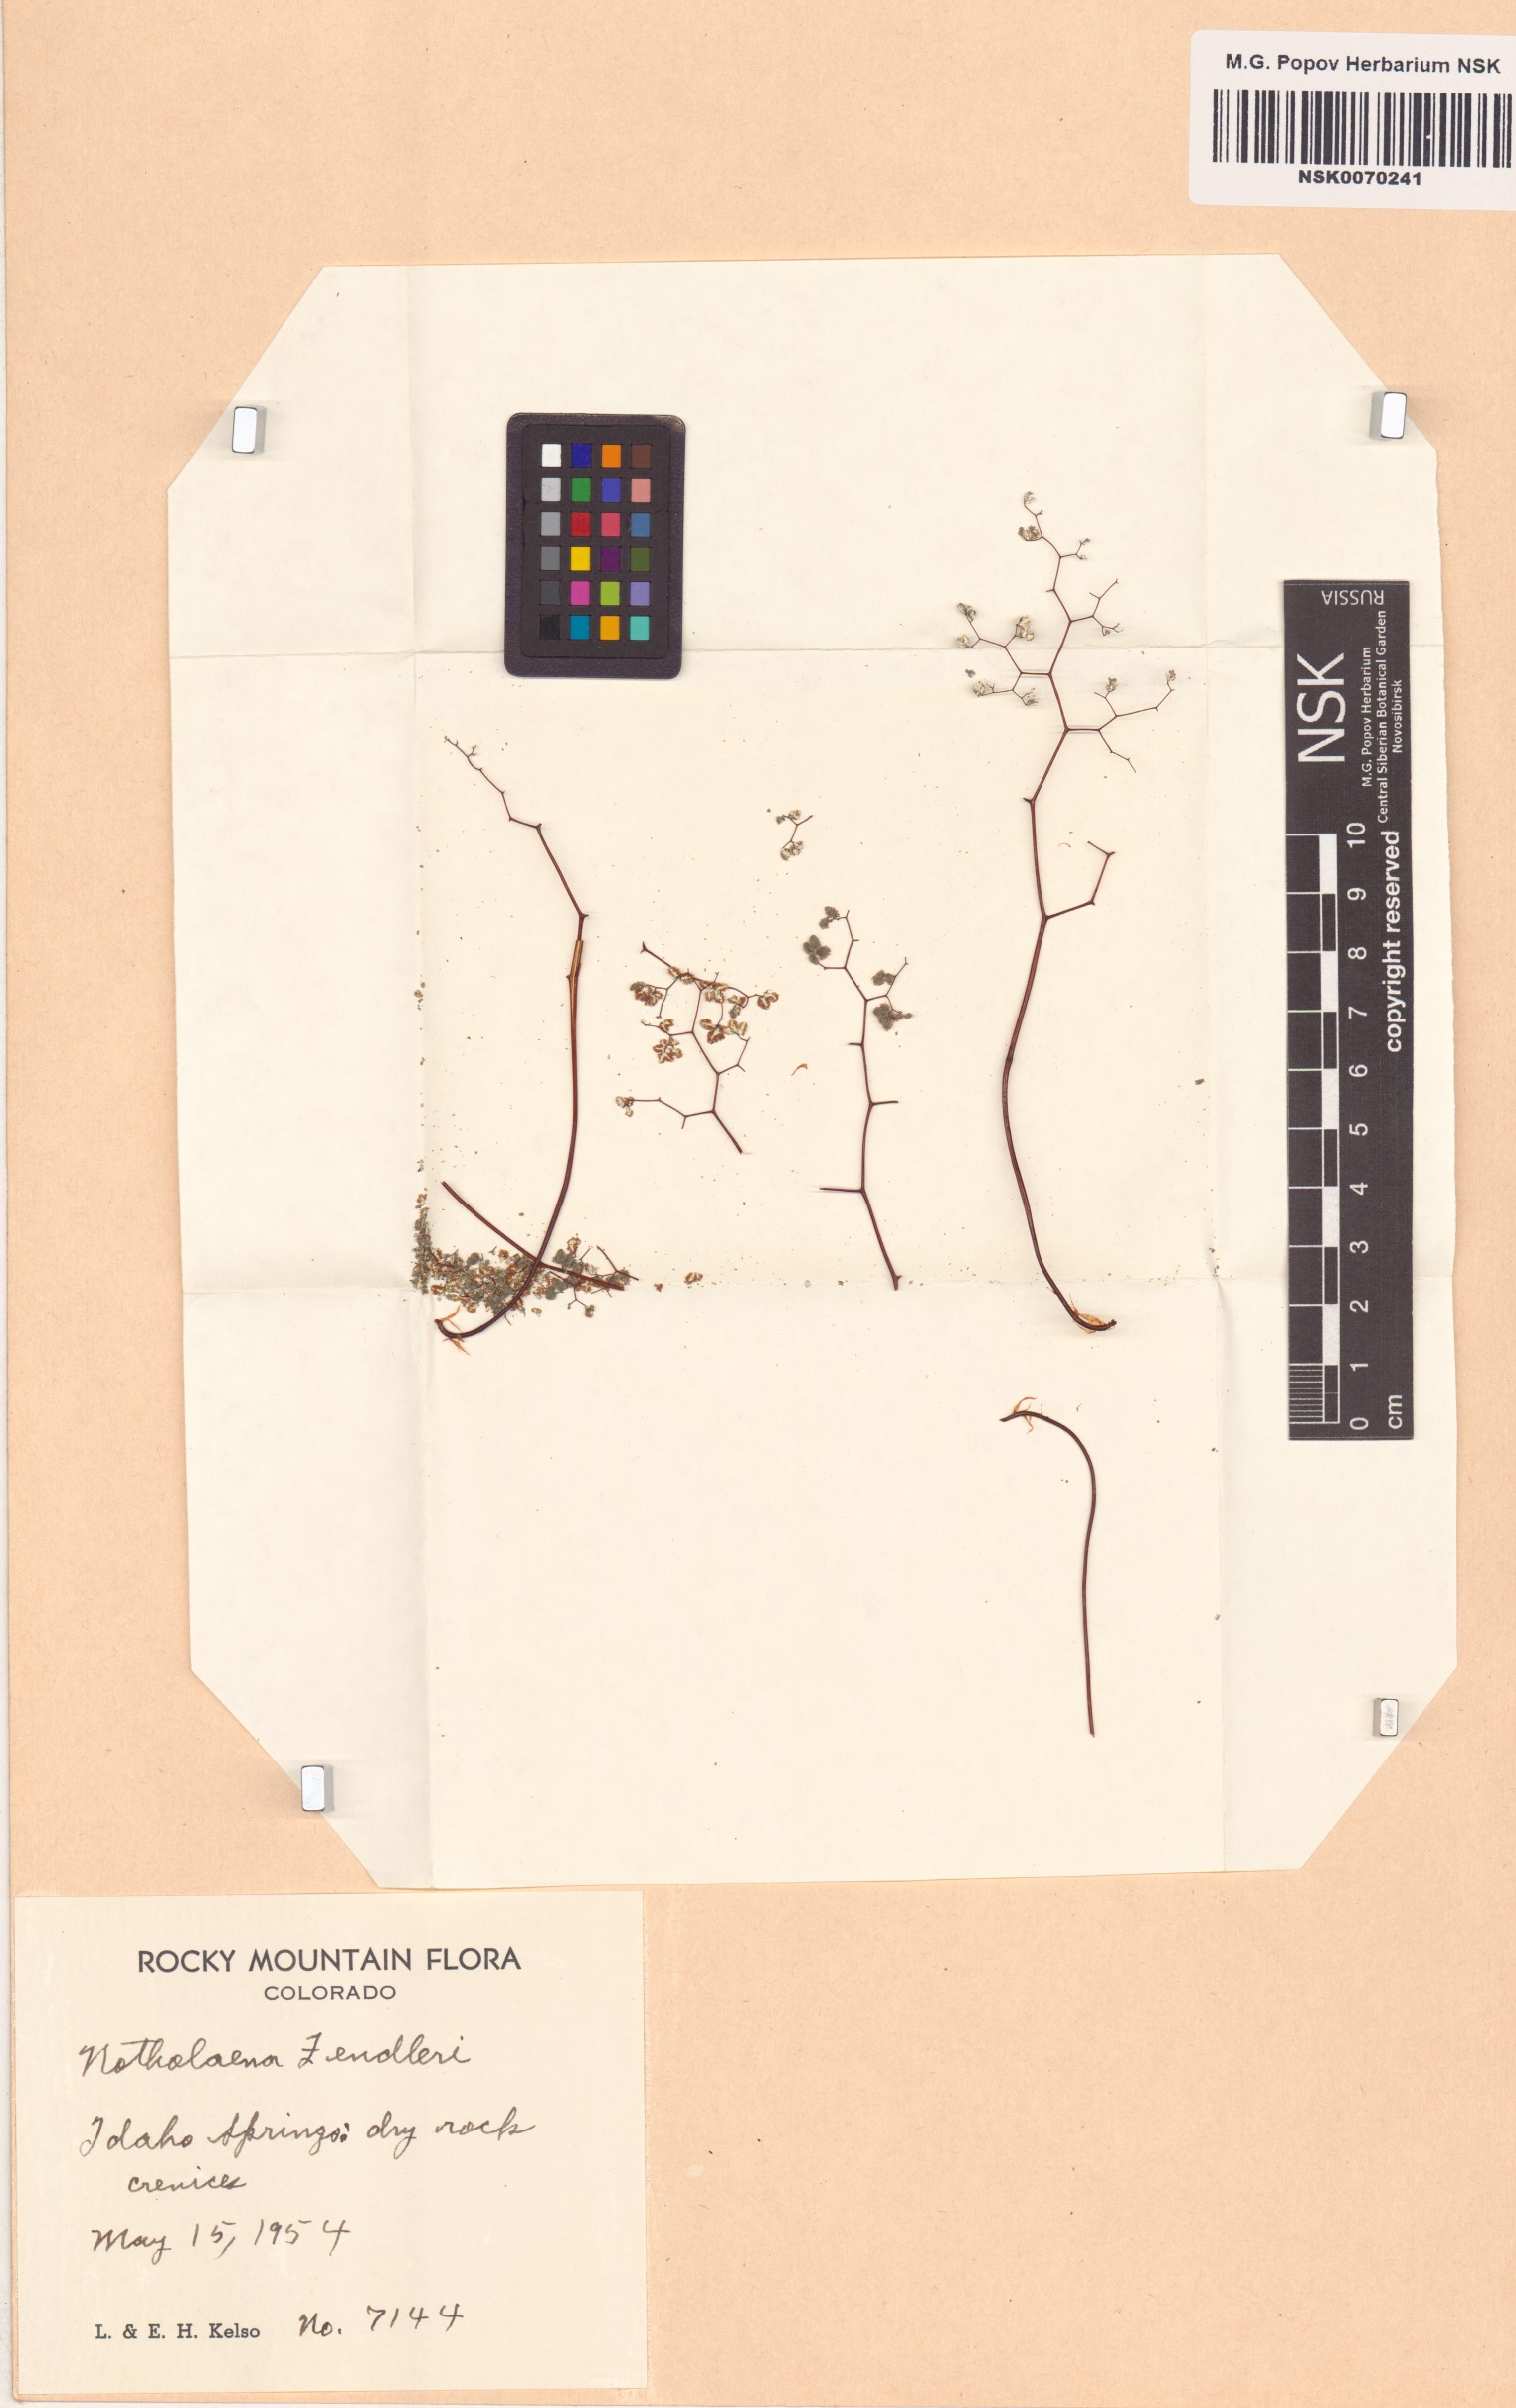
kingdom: Plantae
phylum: Tracheophyta
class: Polypodiopsida
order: Polypodiales
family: Pteridaceae
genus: Argyrochosma
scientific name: Argyrochosma fendleri
